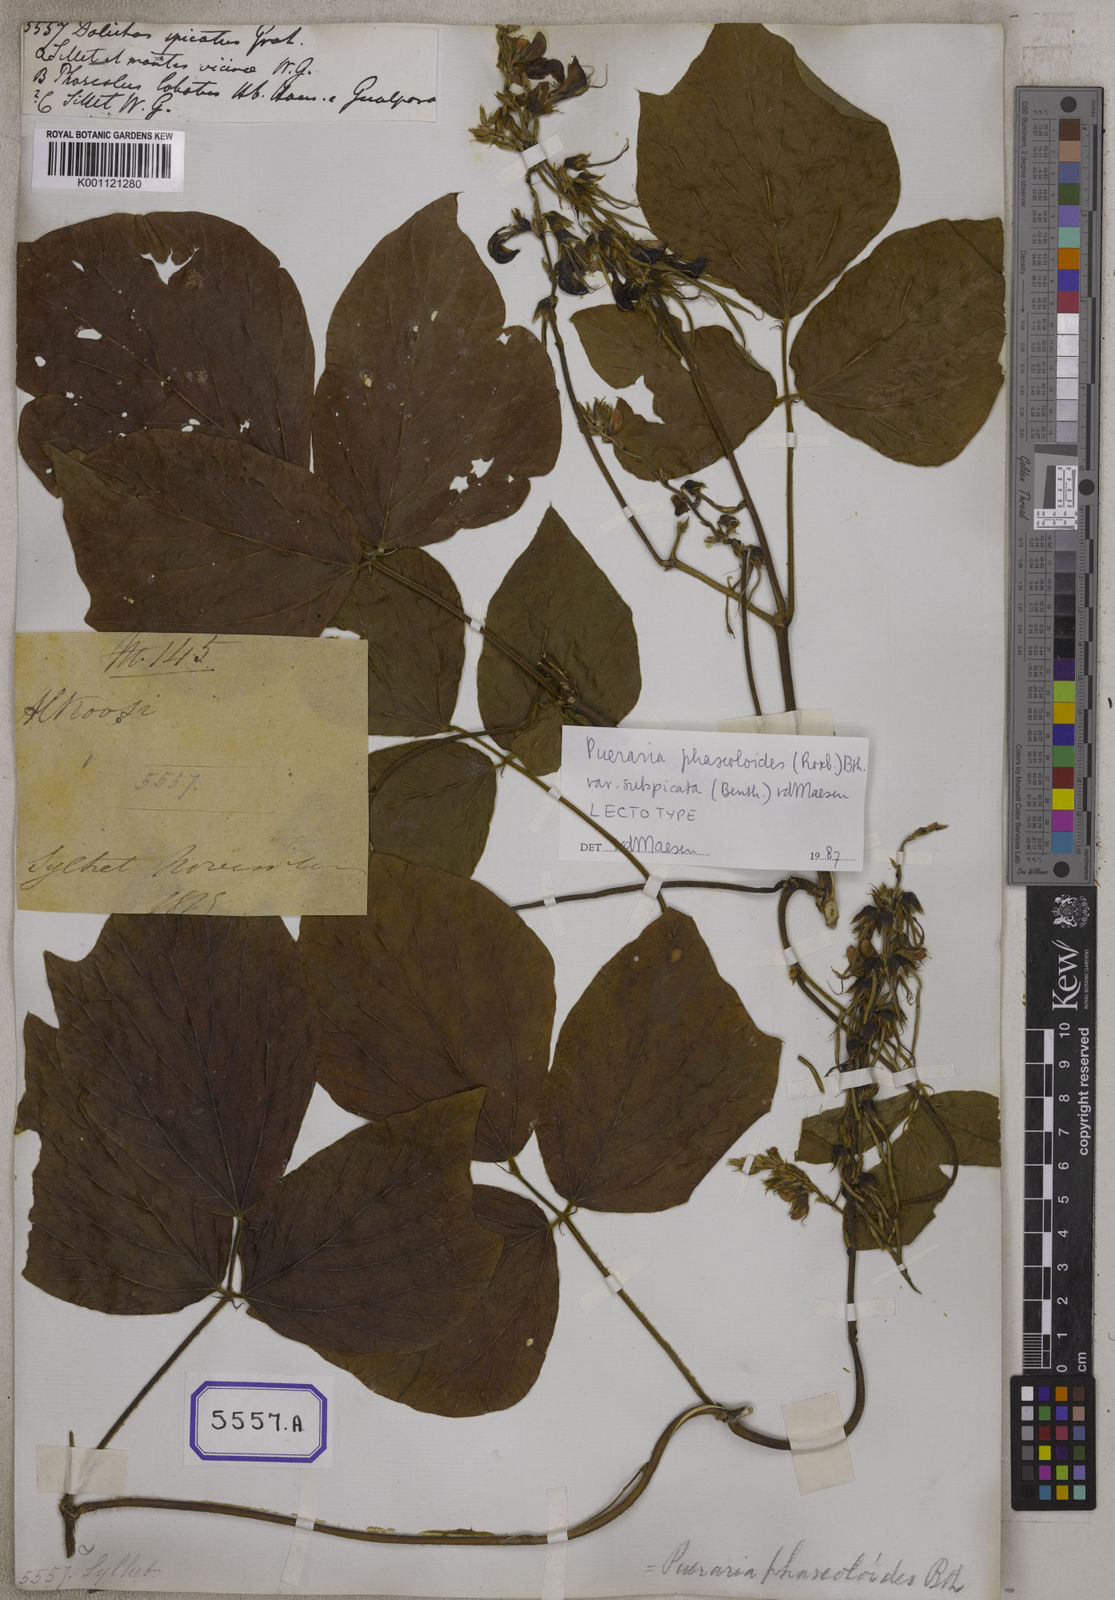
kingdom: Plantae
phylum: Tracheophyta
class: Magnoliopsida
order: Fabales
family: Fabaceae
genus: Dolichos
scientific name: Dolichos
